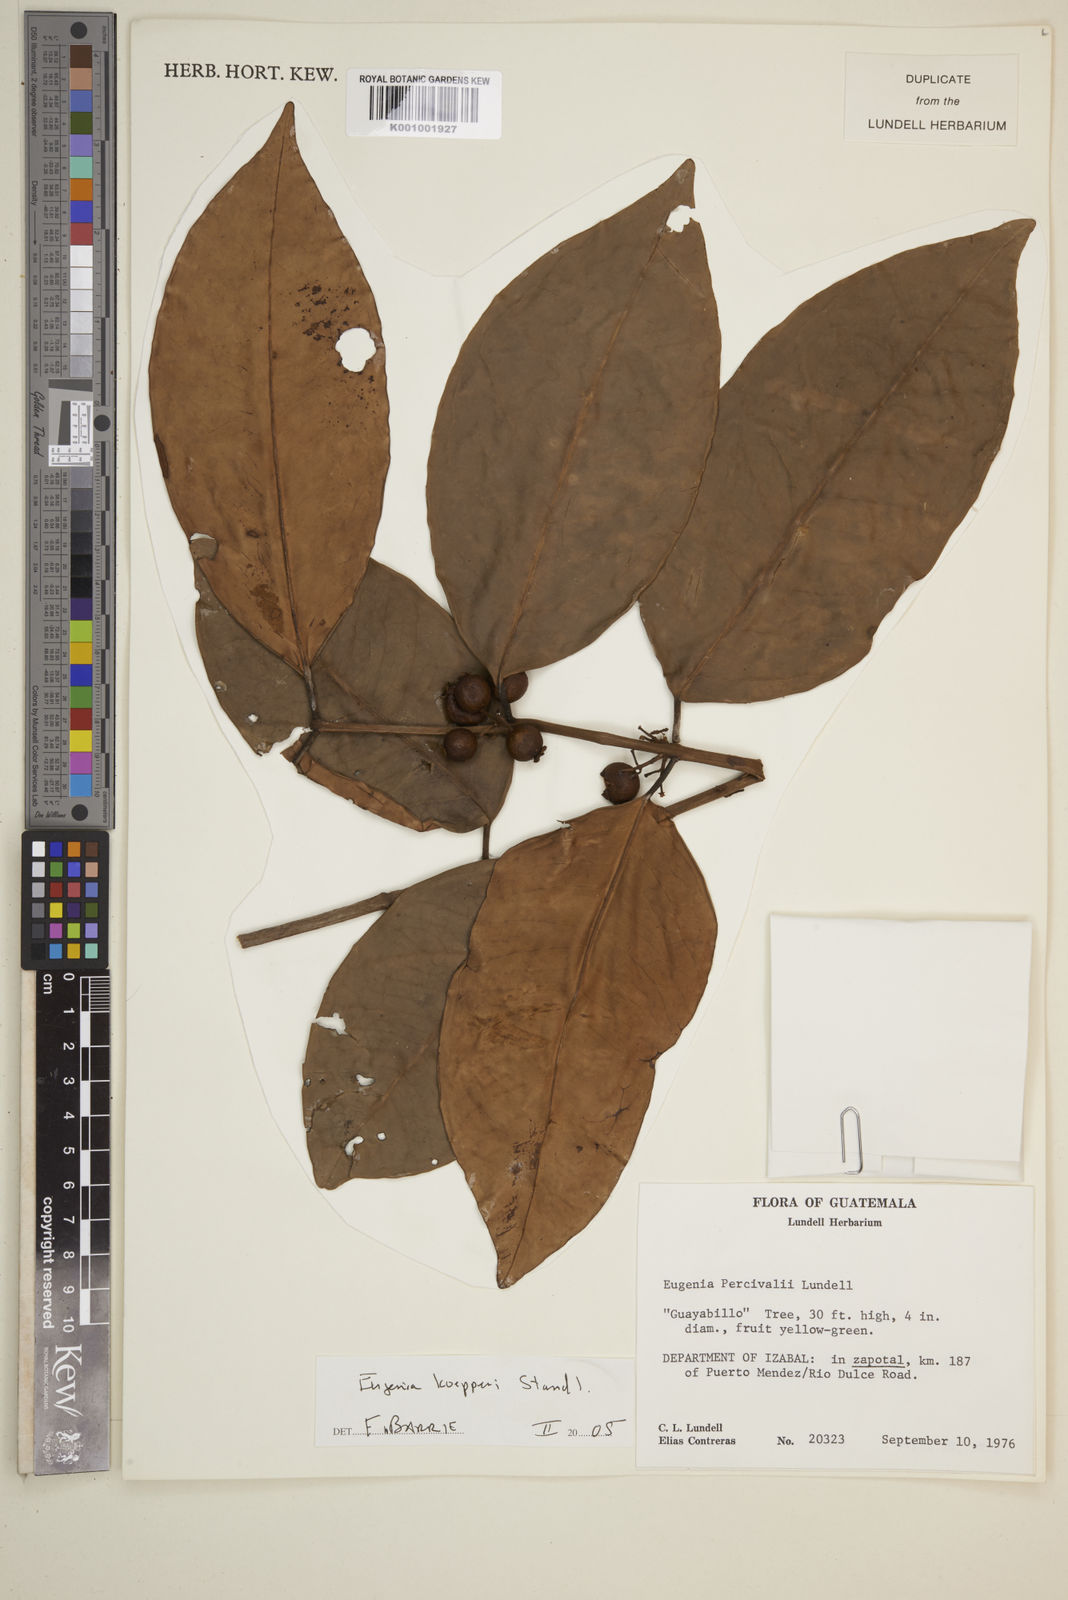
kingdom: Plantae
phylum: Tracheophyta
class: Magnoliopsida
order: Myrtales
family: Myrtaceae
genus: Eugenia
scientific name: Eugenia koepperi
